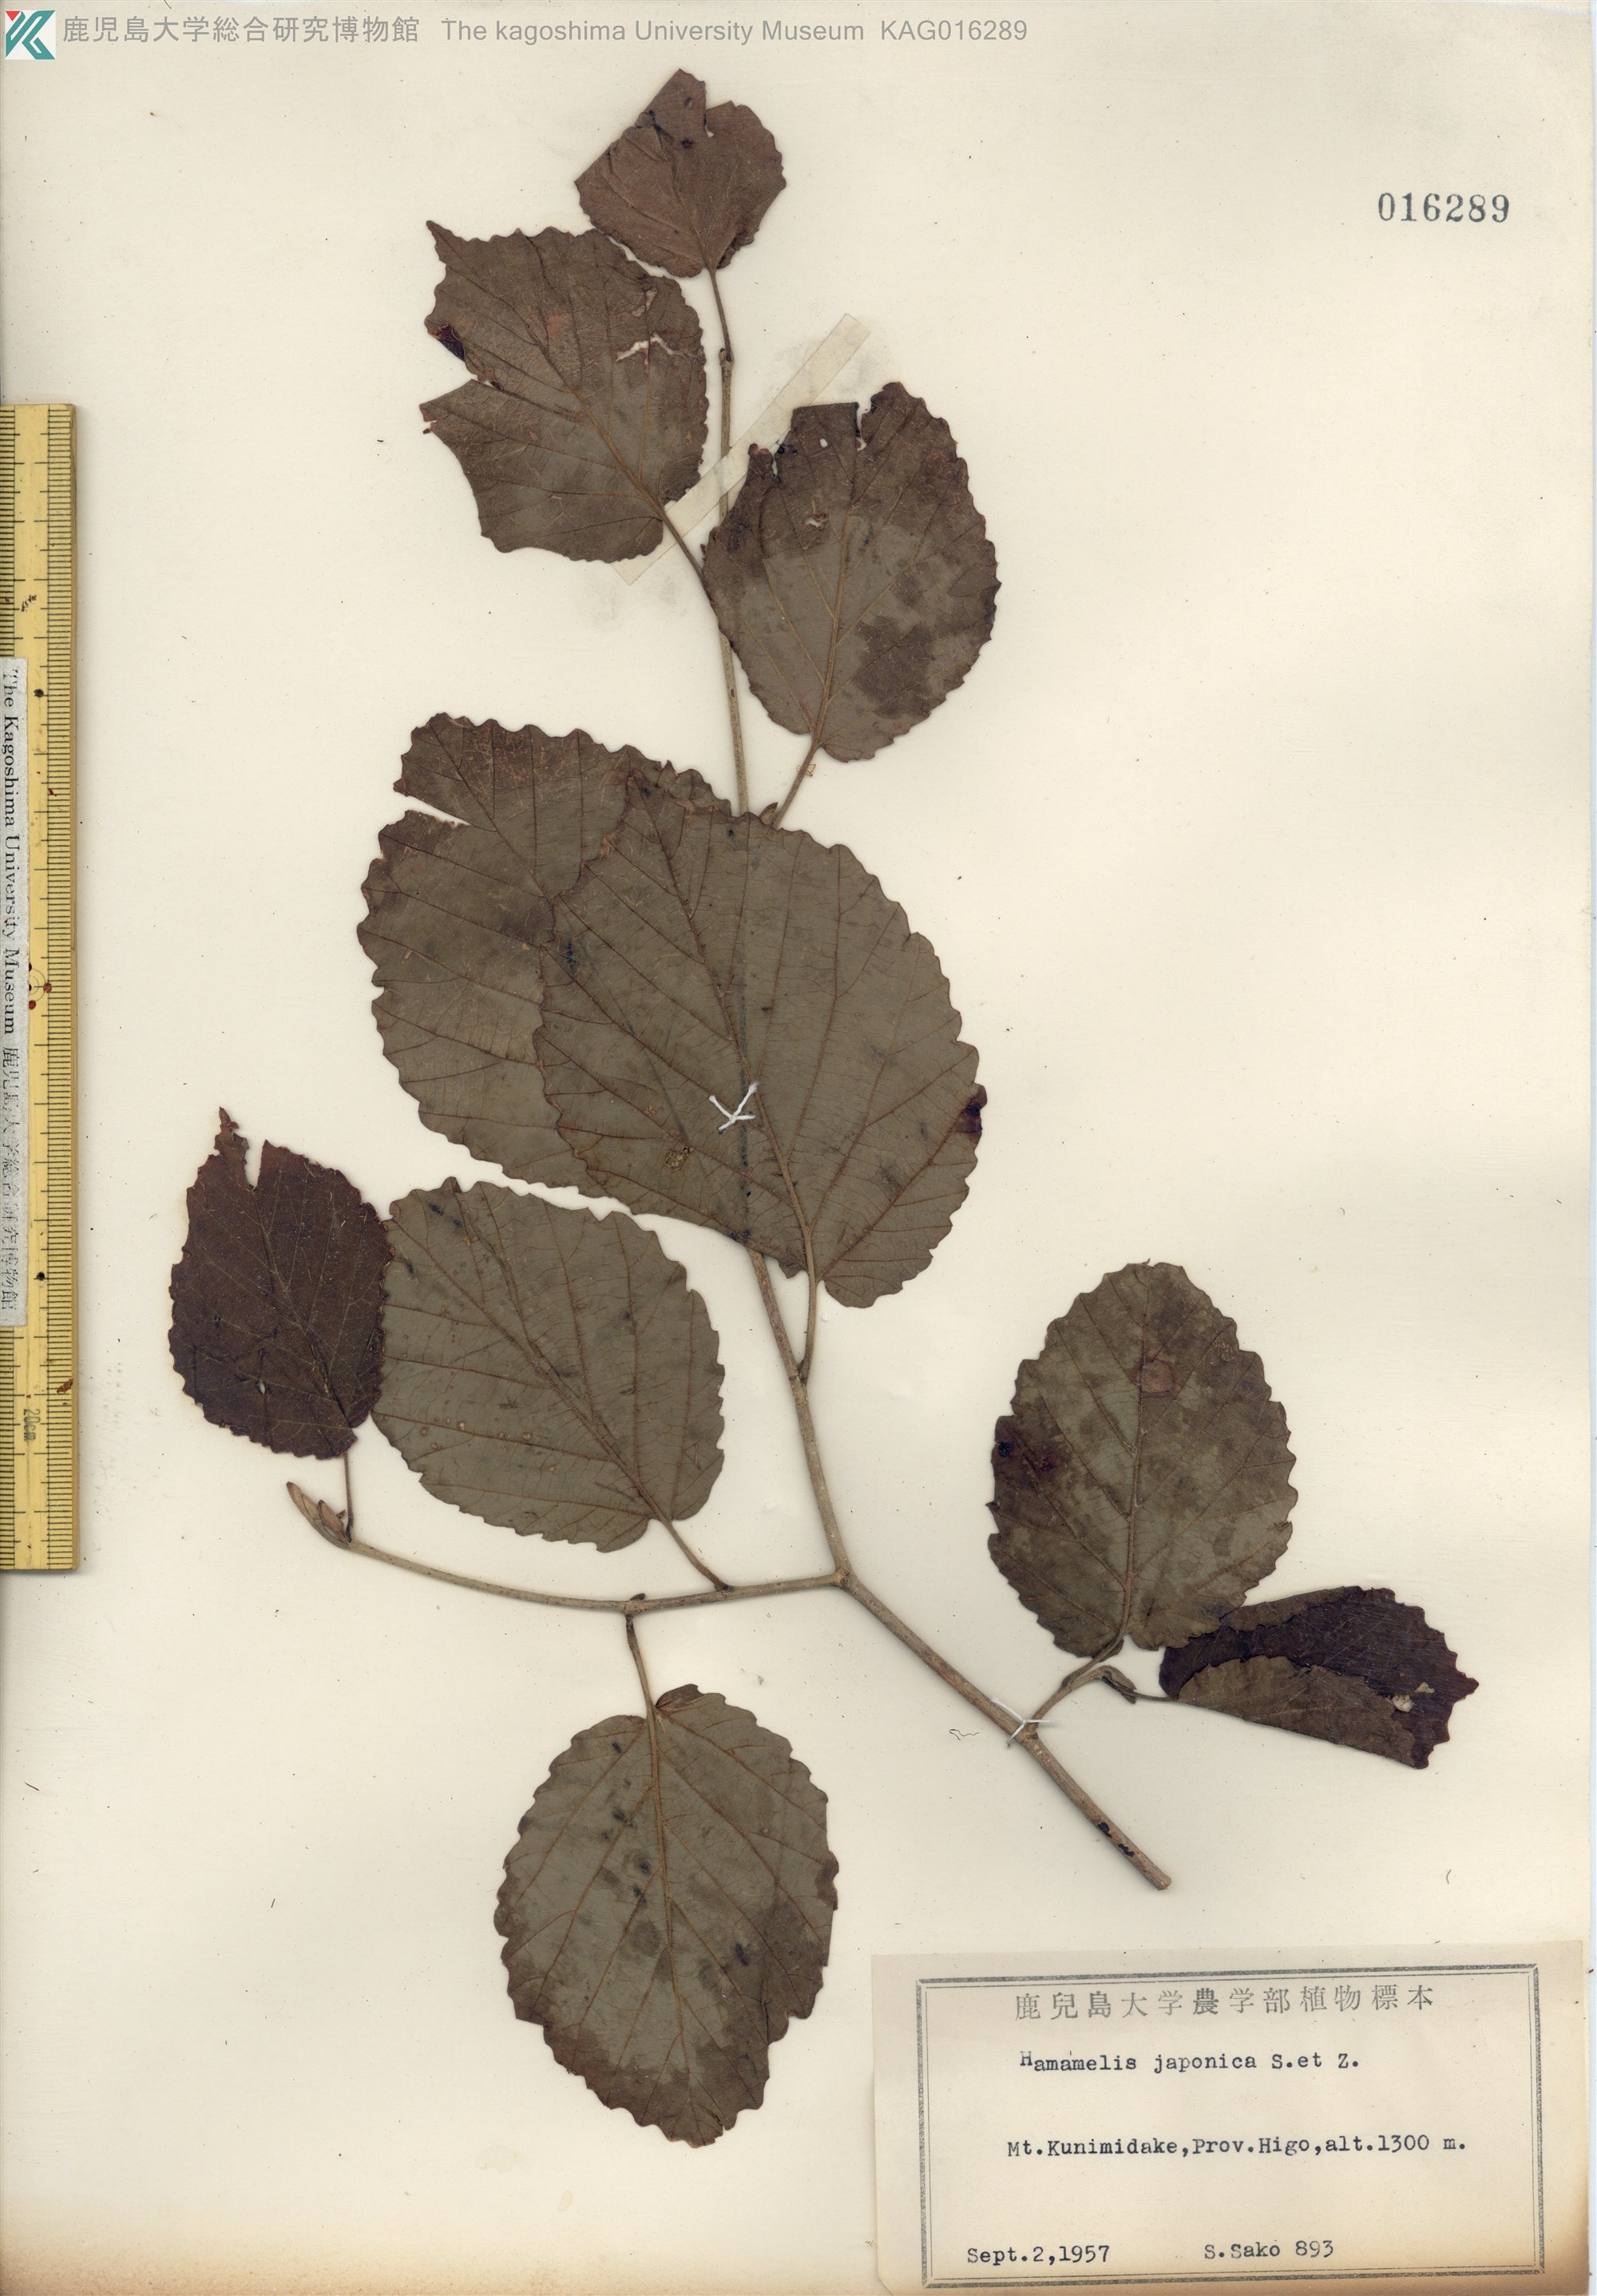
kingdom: Plantae
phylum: Tracheophyta
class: Magnoliopsida
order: Saxifragales
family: Hamamelidaceae
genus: Hamamelis
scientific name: Hamamelis japonica
